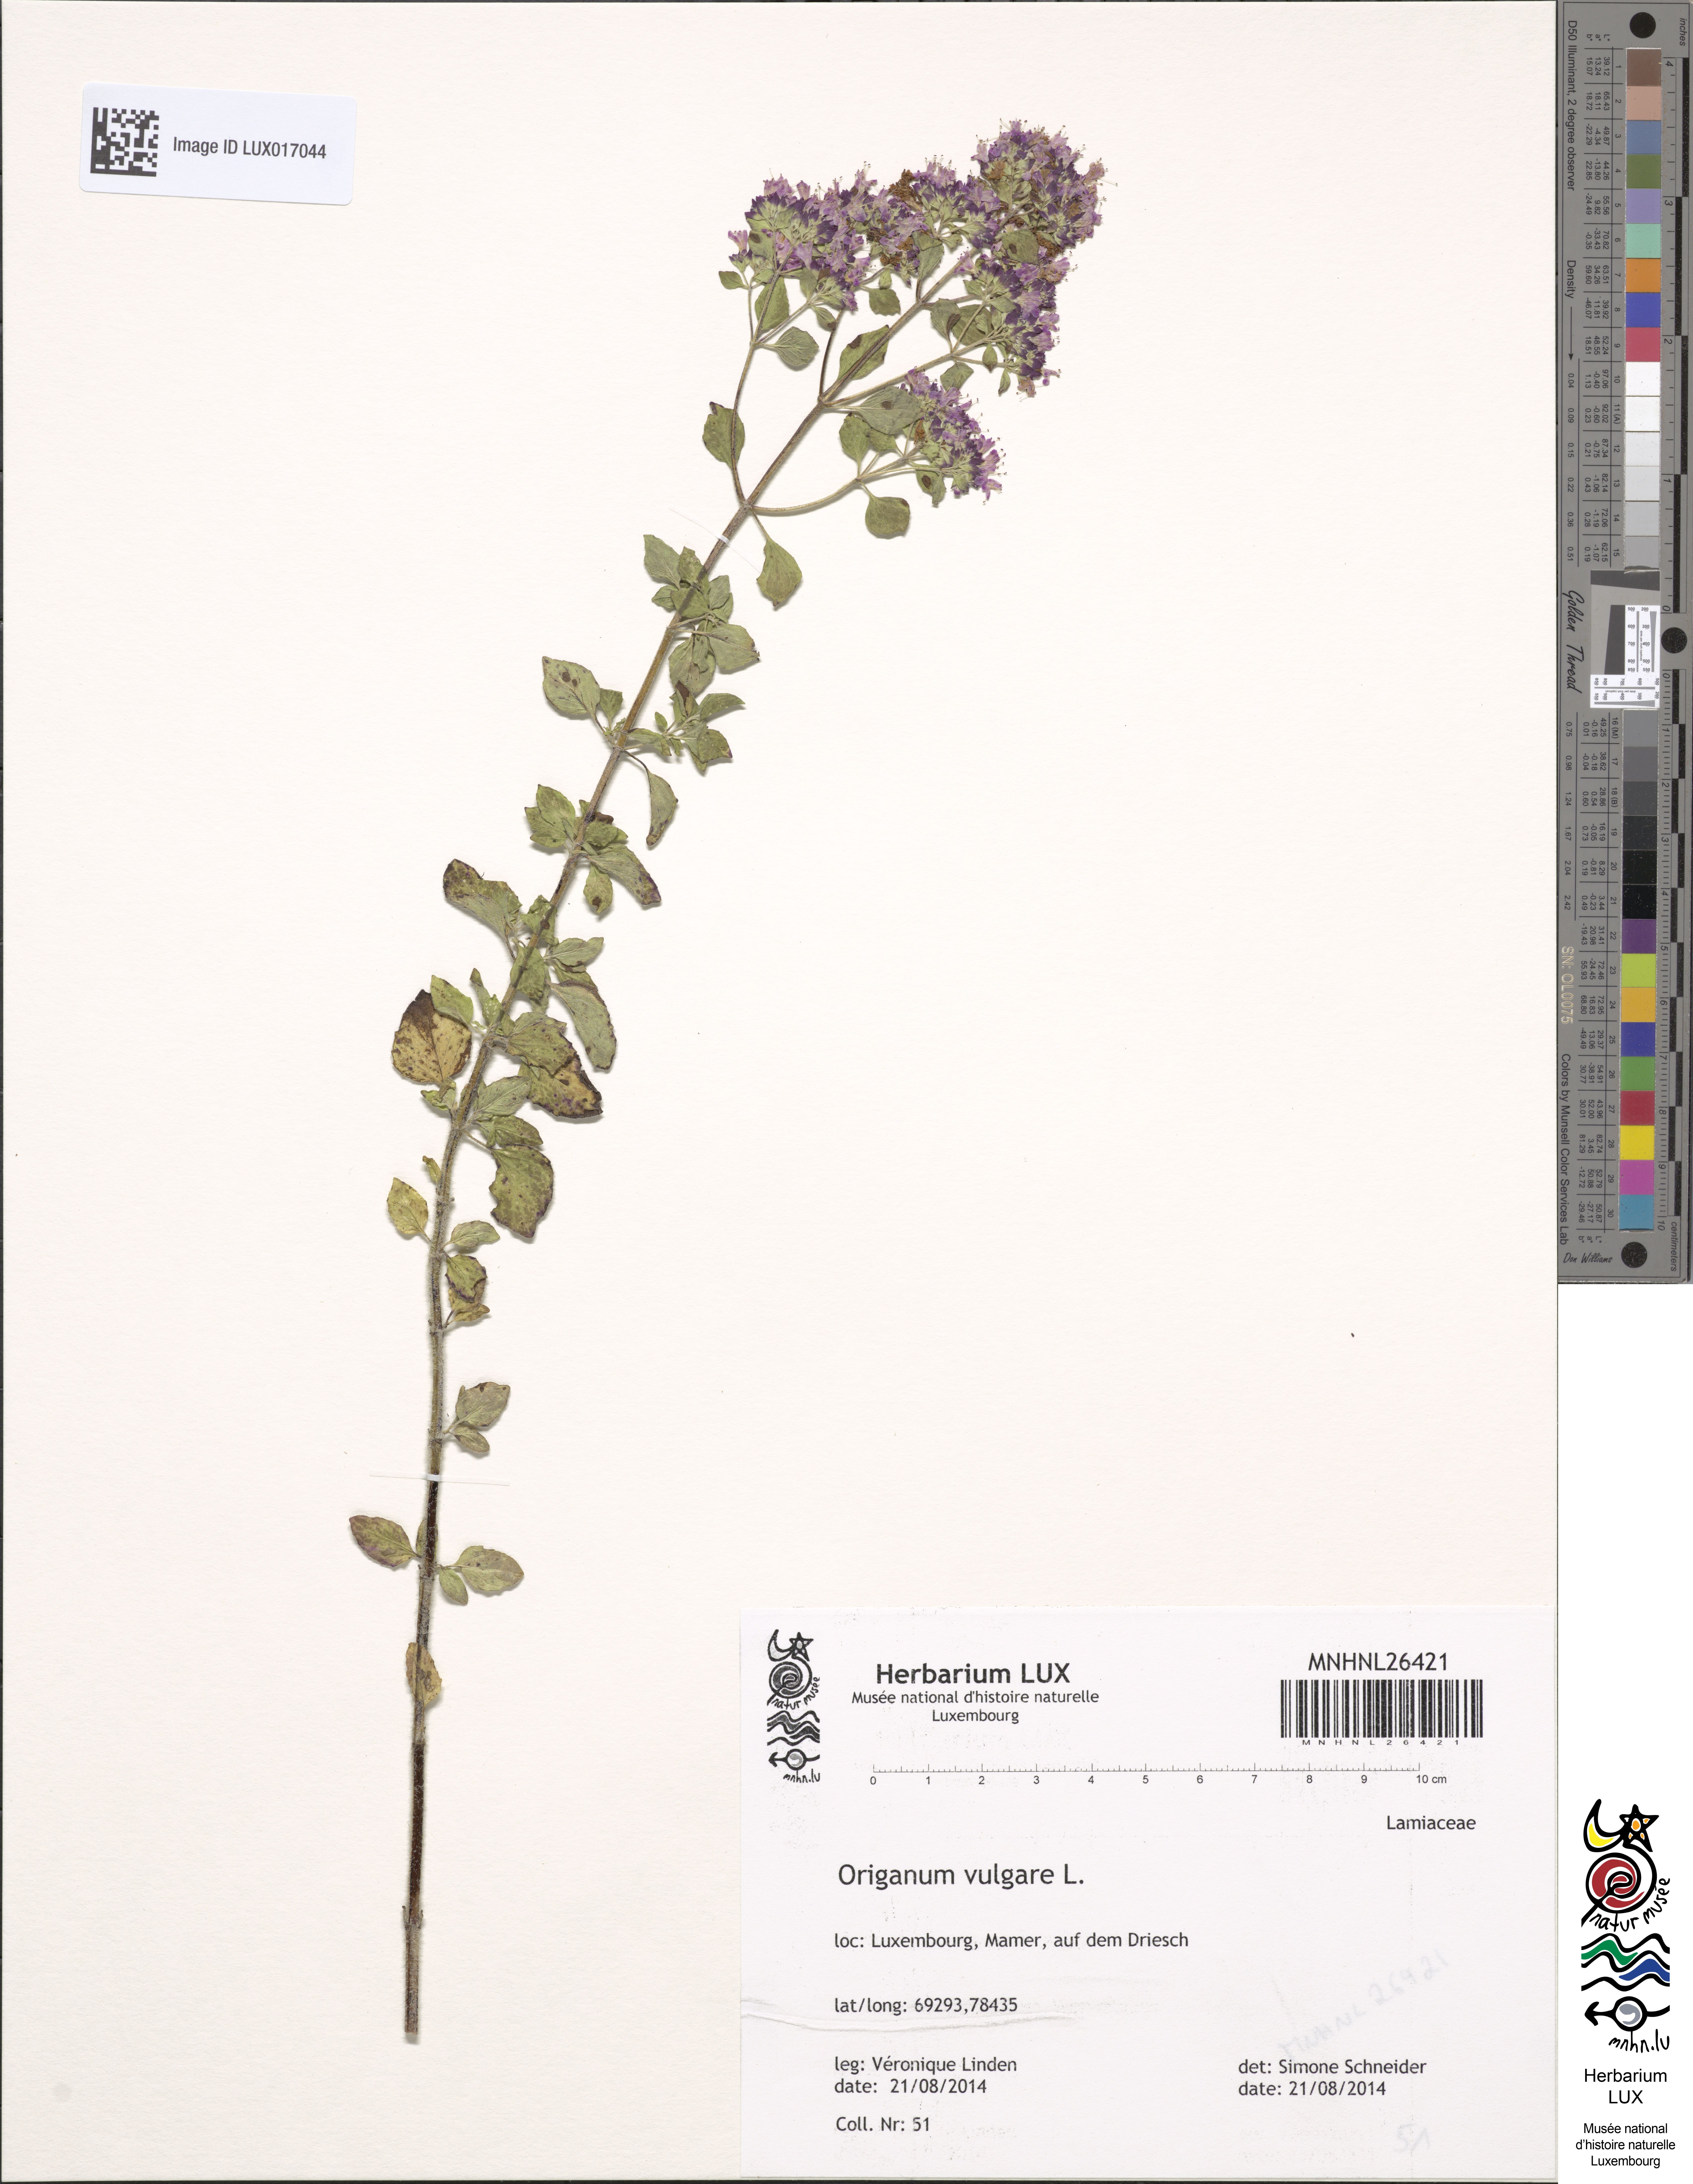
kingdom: Plantae
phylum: Tracheophyta
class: Magnoliopsida
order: Lamiales
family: Lamiaceae
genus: Origanum
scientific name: Origanum vulgare
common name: Wild marjoram
